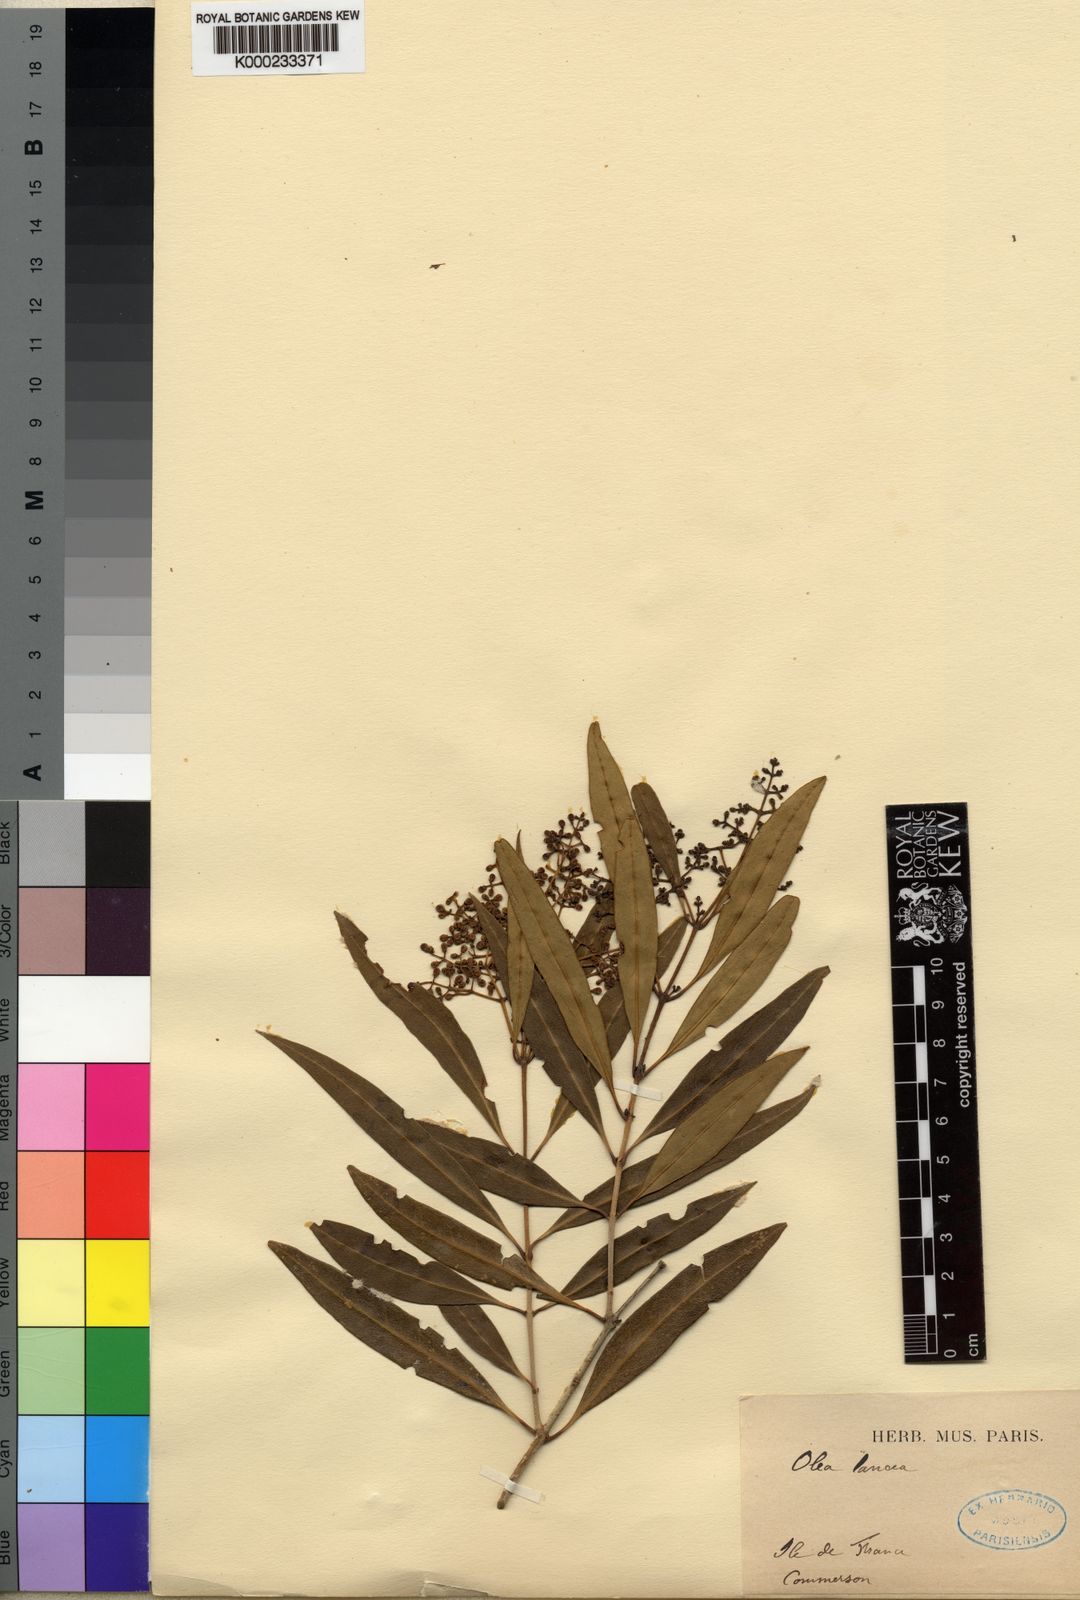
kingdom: Plantae
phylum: Tracheophyta
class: Magnoliopsida
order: Lamiales
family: Oleaceae
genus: Olea
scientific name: Olea lancea
